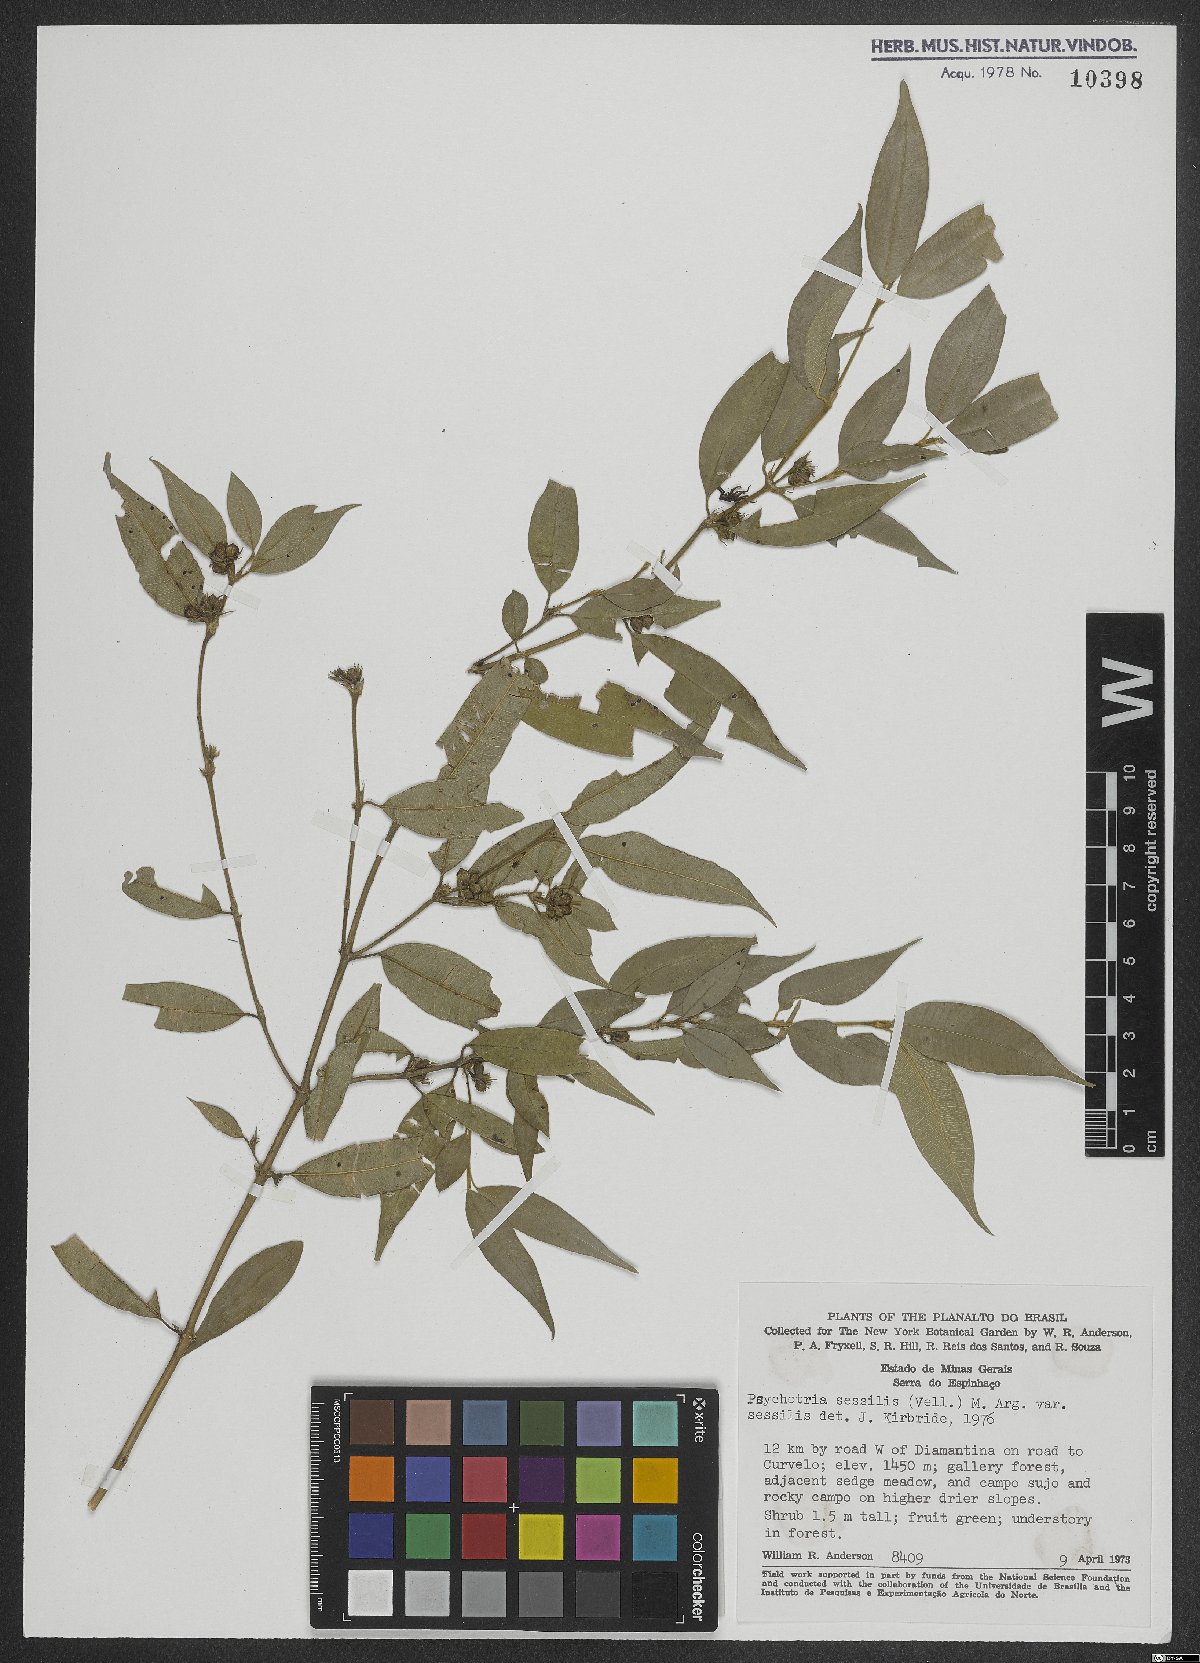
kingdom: Plantae
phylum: Tracheophyta
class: Magnoliopsida
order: Gentianales
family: Rubiaceae
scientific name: Rubiaceae
